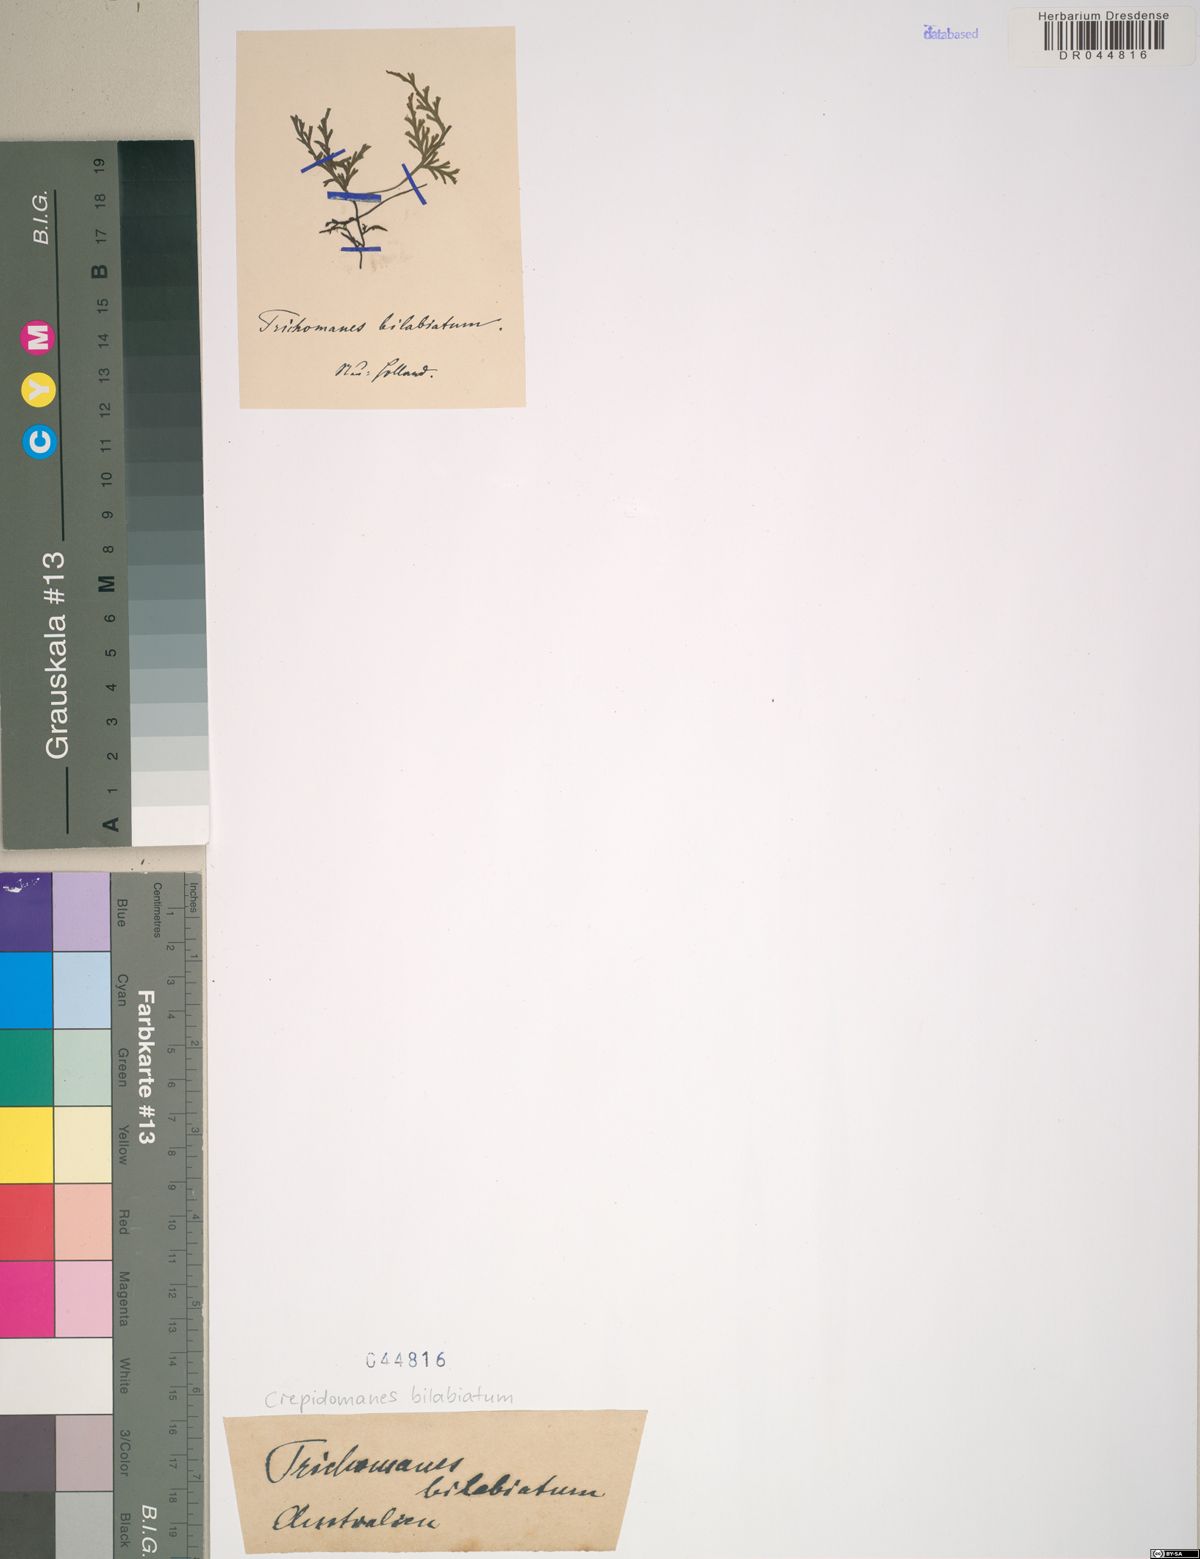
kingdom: Plantae
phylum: Tracheophyta
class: Polypodiopsida
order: Hymenophyllales
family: Hymenophyllaceae
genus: Crepidomanes
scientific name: Crepidomanes bilabiatum
